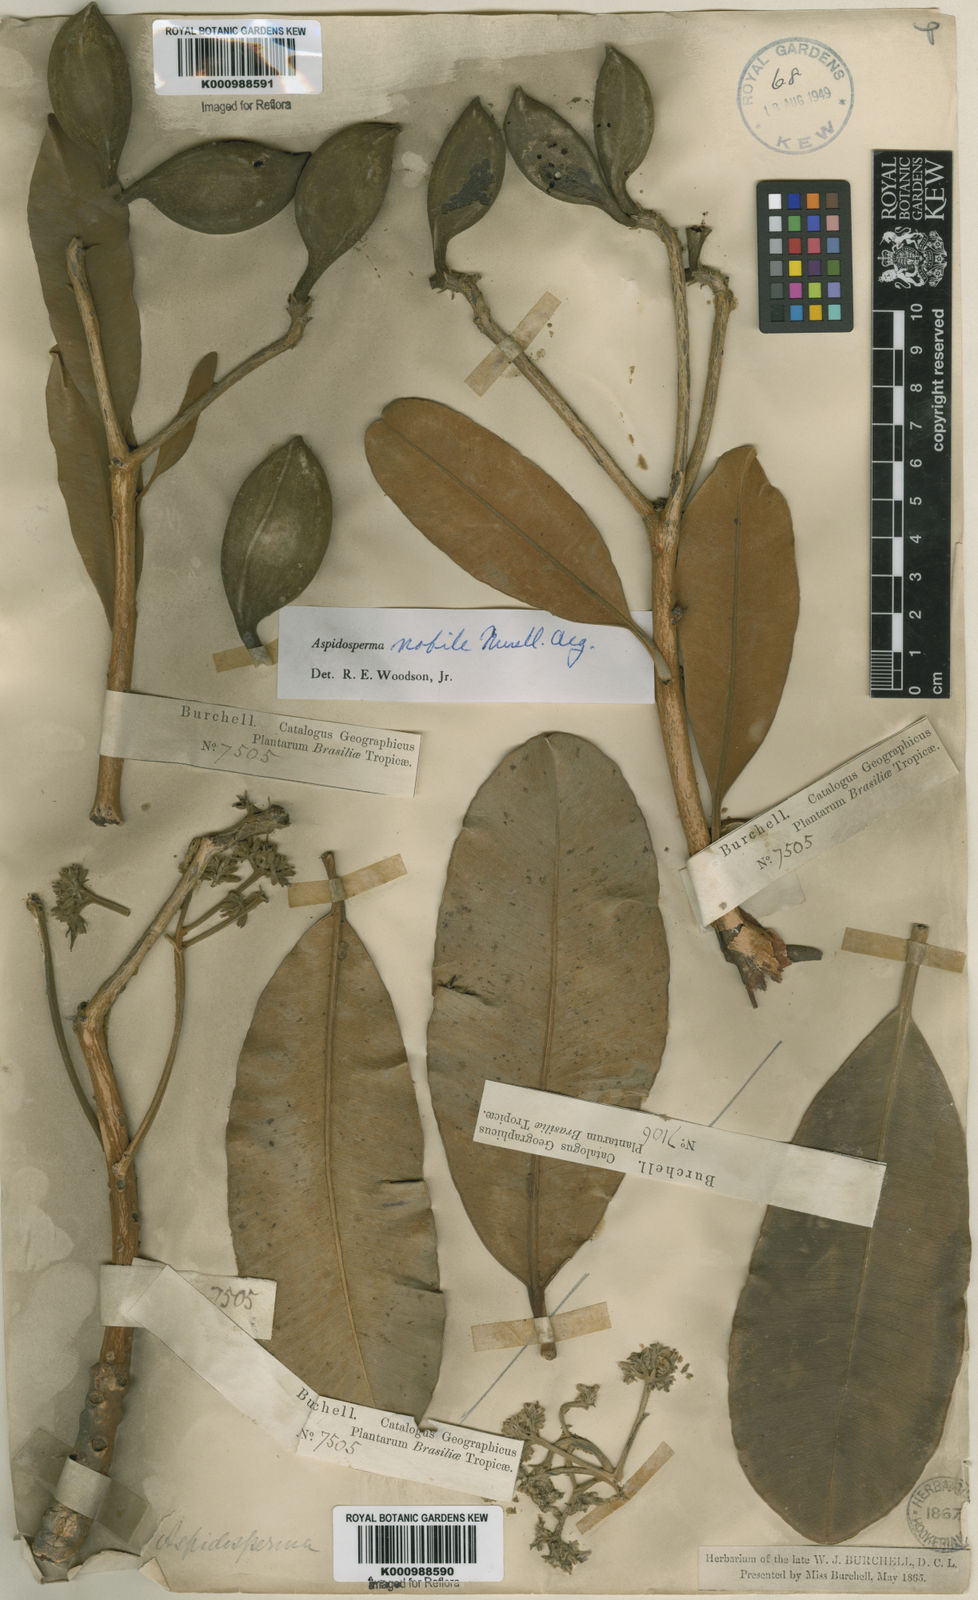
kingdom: Plantae
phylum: Tracheophyta
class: Magnoliopsida
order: Gentianales
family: Apocynaceae
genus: Aspidosperma
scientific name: Aspidosperma
